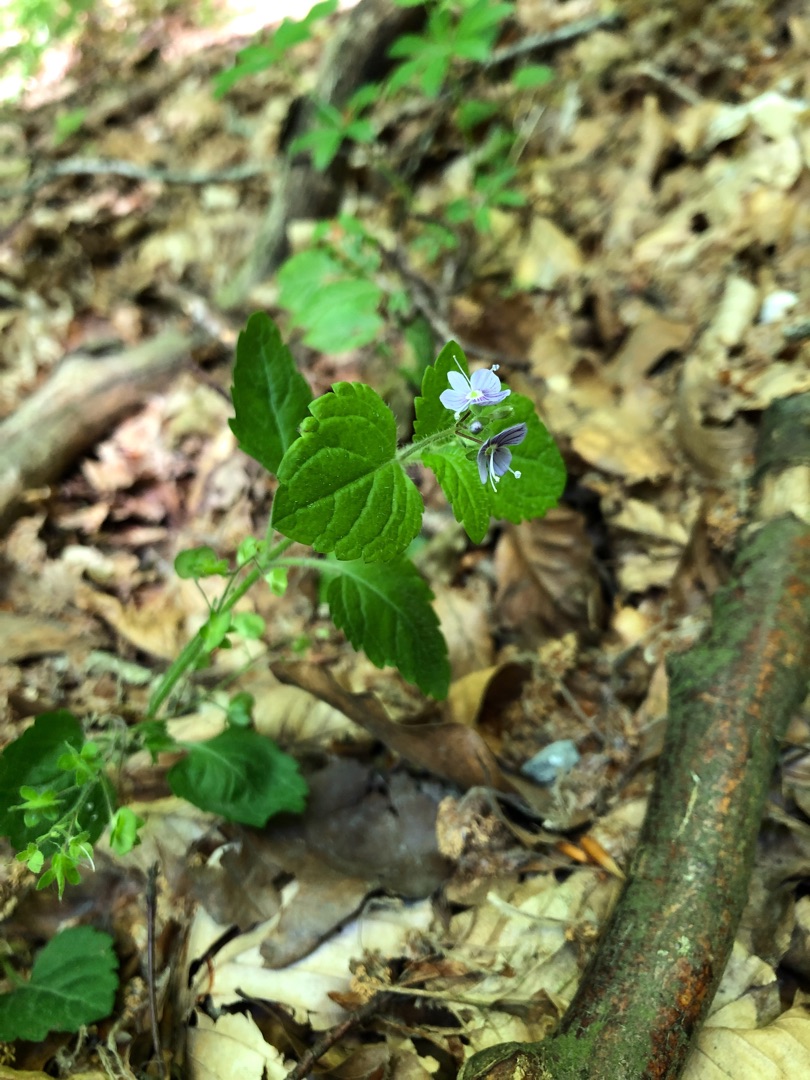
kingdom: Plantae
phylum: Tracheophyta
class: Magnoliopsida
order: Lamiales
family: Plantaginaceae
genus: Veronica
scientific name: Veronica montana
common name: Bjerg-ærenpris
